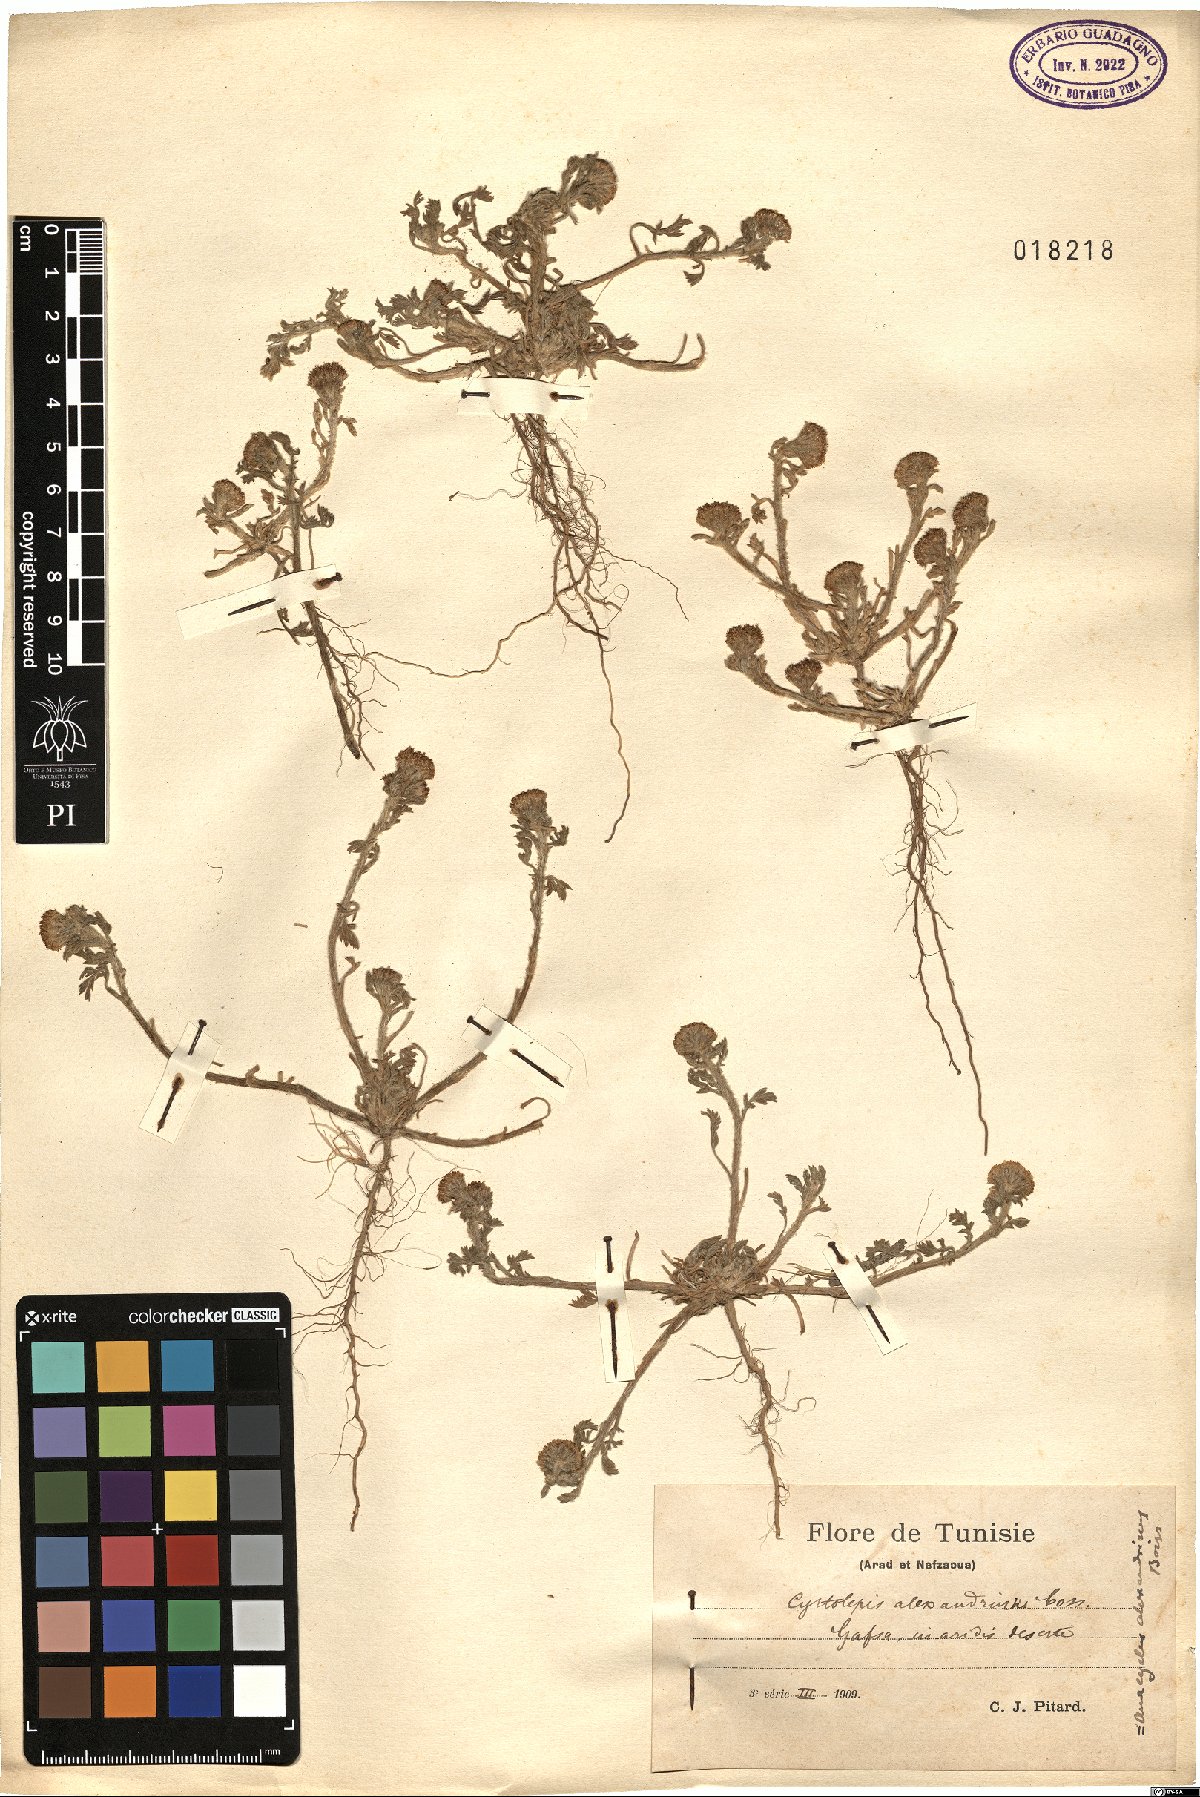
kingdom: Plantae
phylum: Tracheophyta
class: Magnoliopsida
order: Asterales
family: Asteraceae
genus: Anacyclus
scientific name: Anacyclus monanthos
